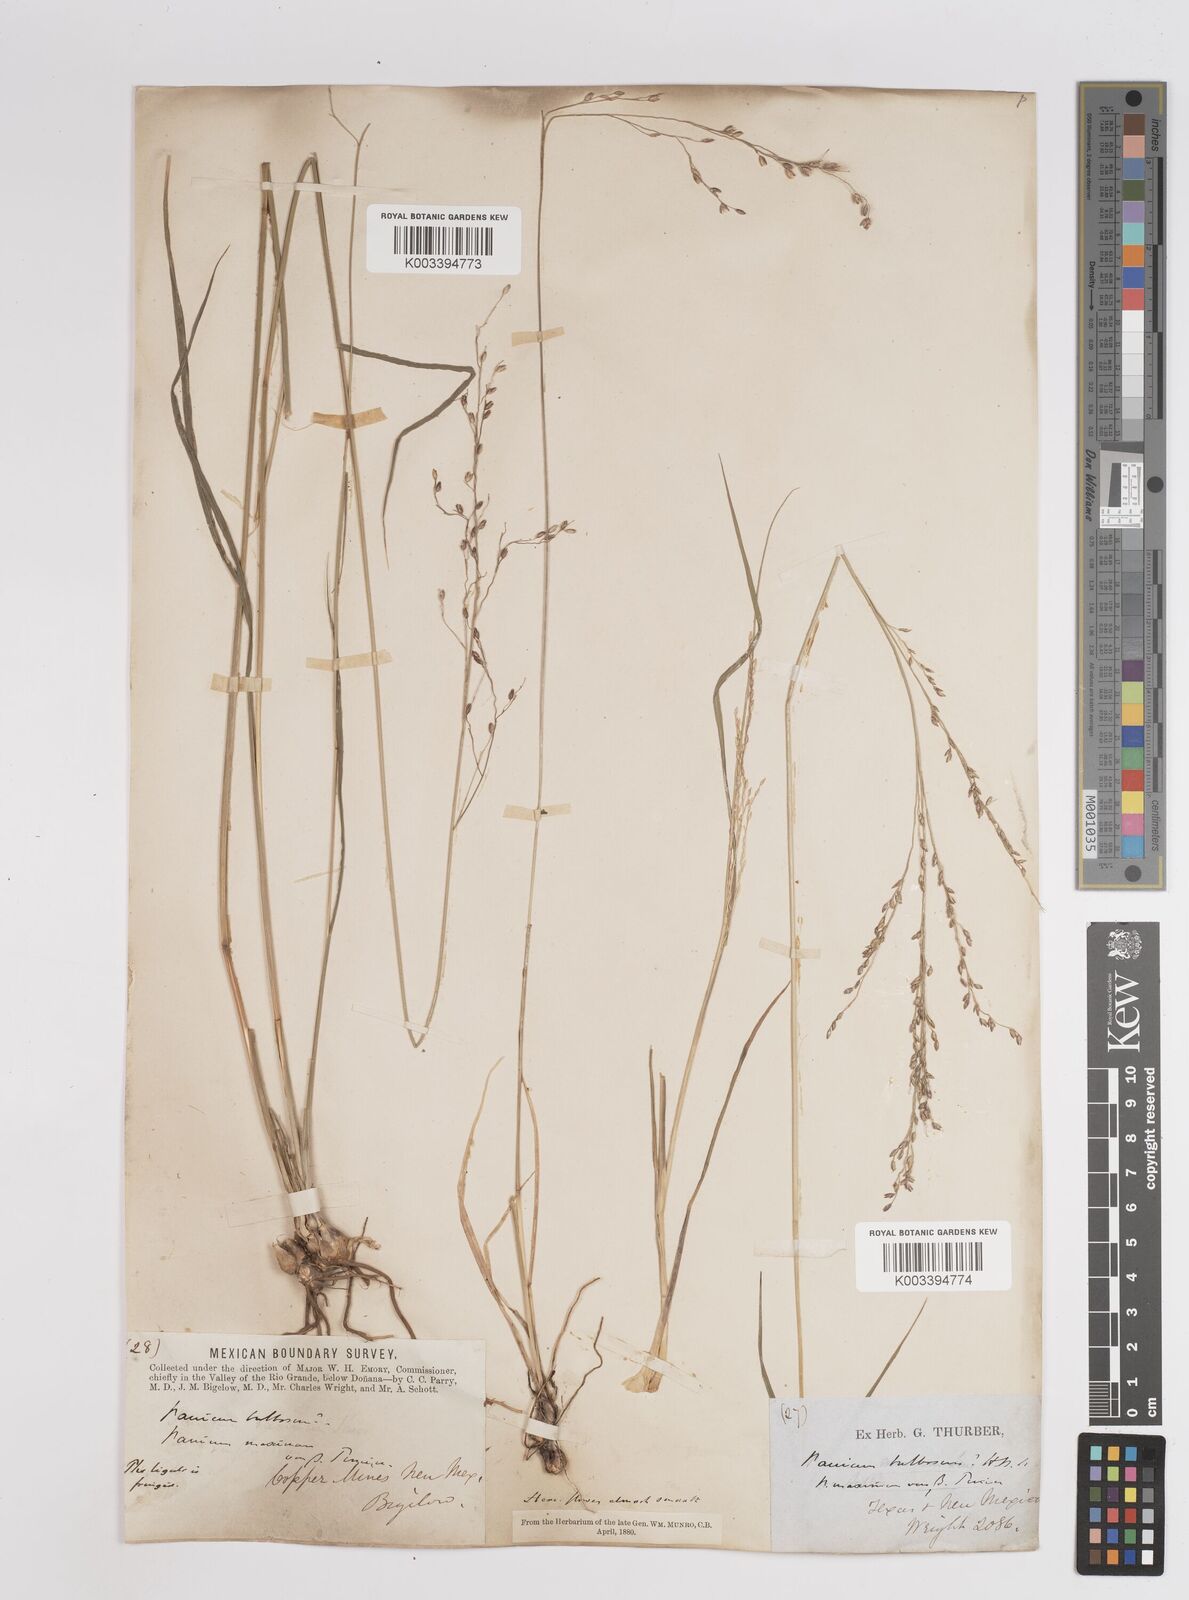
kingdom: Plantae
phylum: Tracheophyta
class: Liliopsida
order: Poales
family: Poaceae
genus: Zuloagaea
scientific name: Zuloagaea bulbosa
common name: Canyon panic grass
